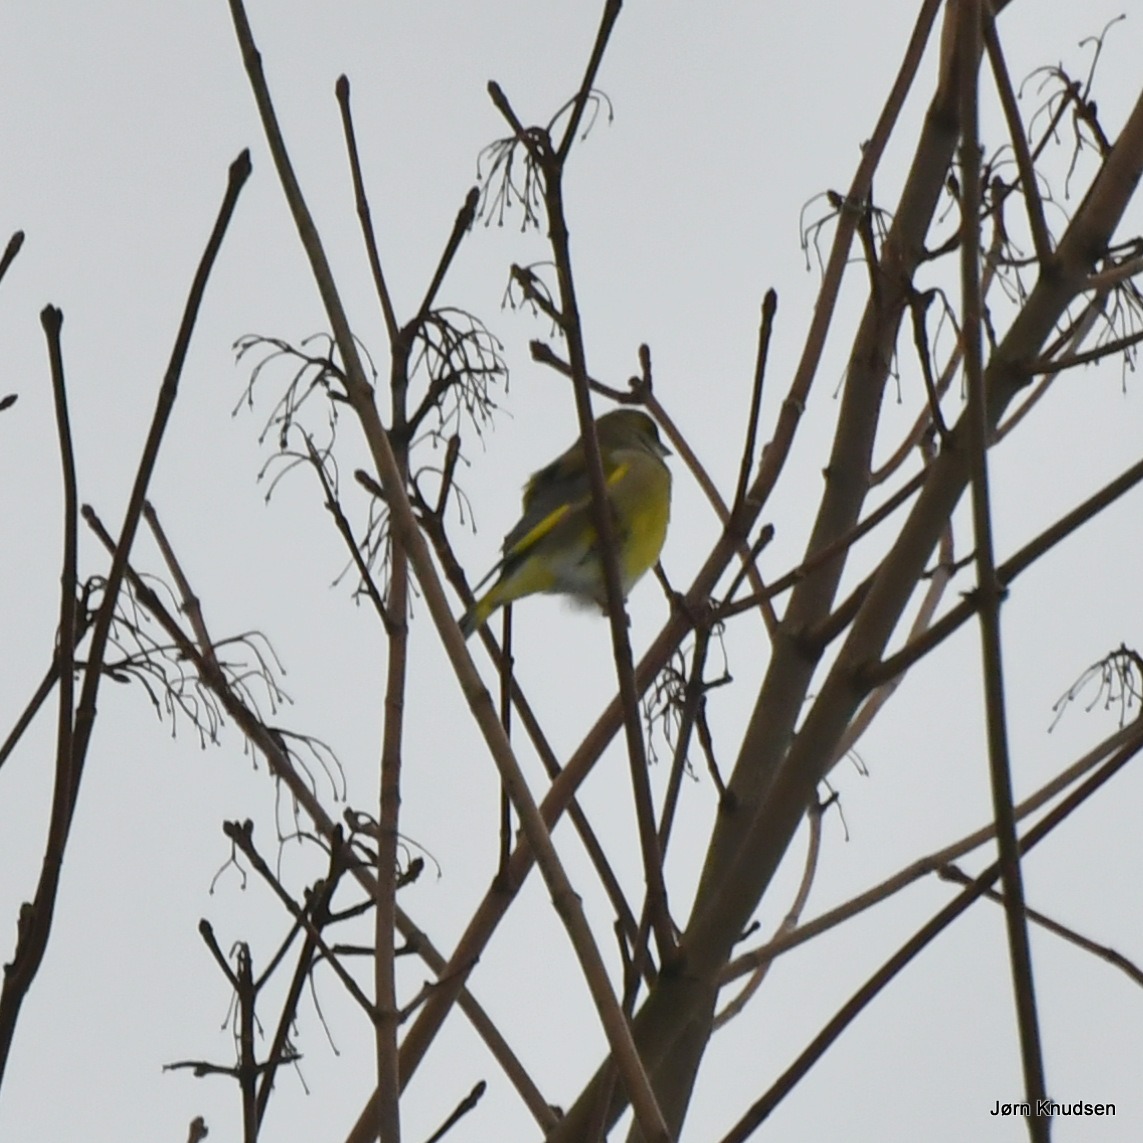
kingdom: Plantae
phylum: Tracheophyta
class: Liliopsida
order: Poales
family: Poaceae
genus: Chloris
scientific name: Chloris chloris
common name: Grønirisk
